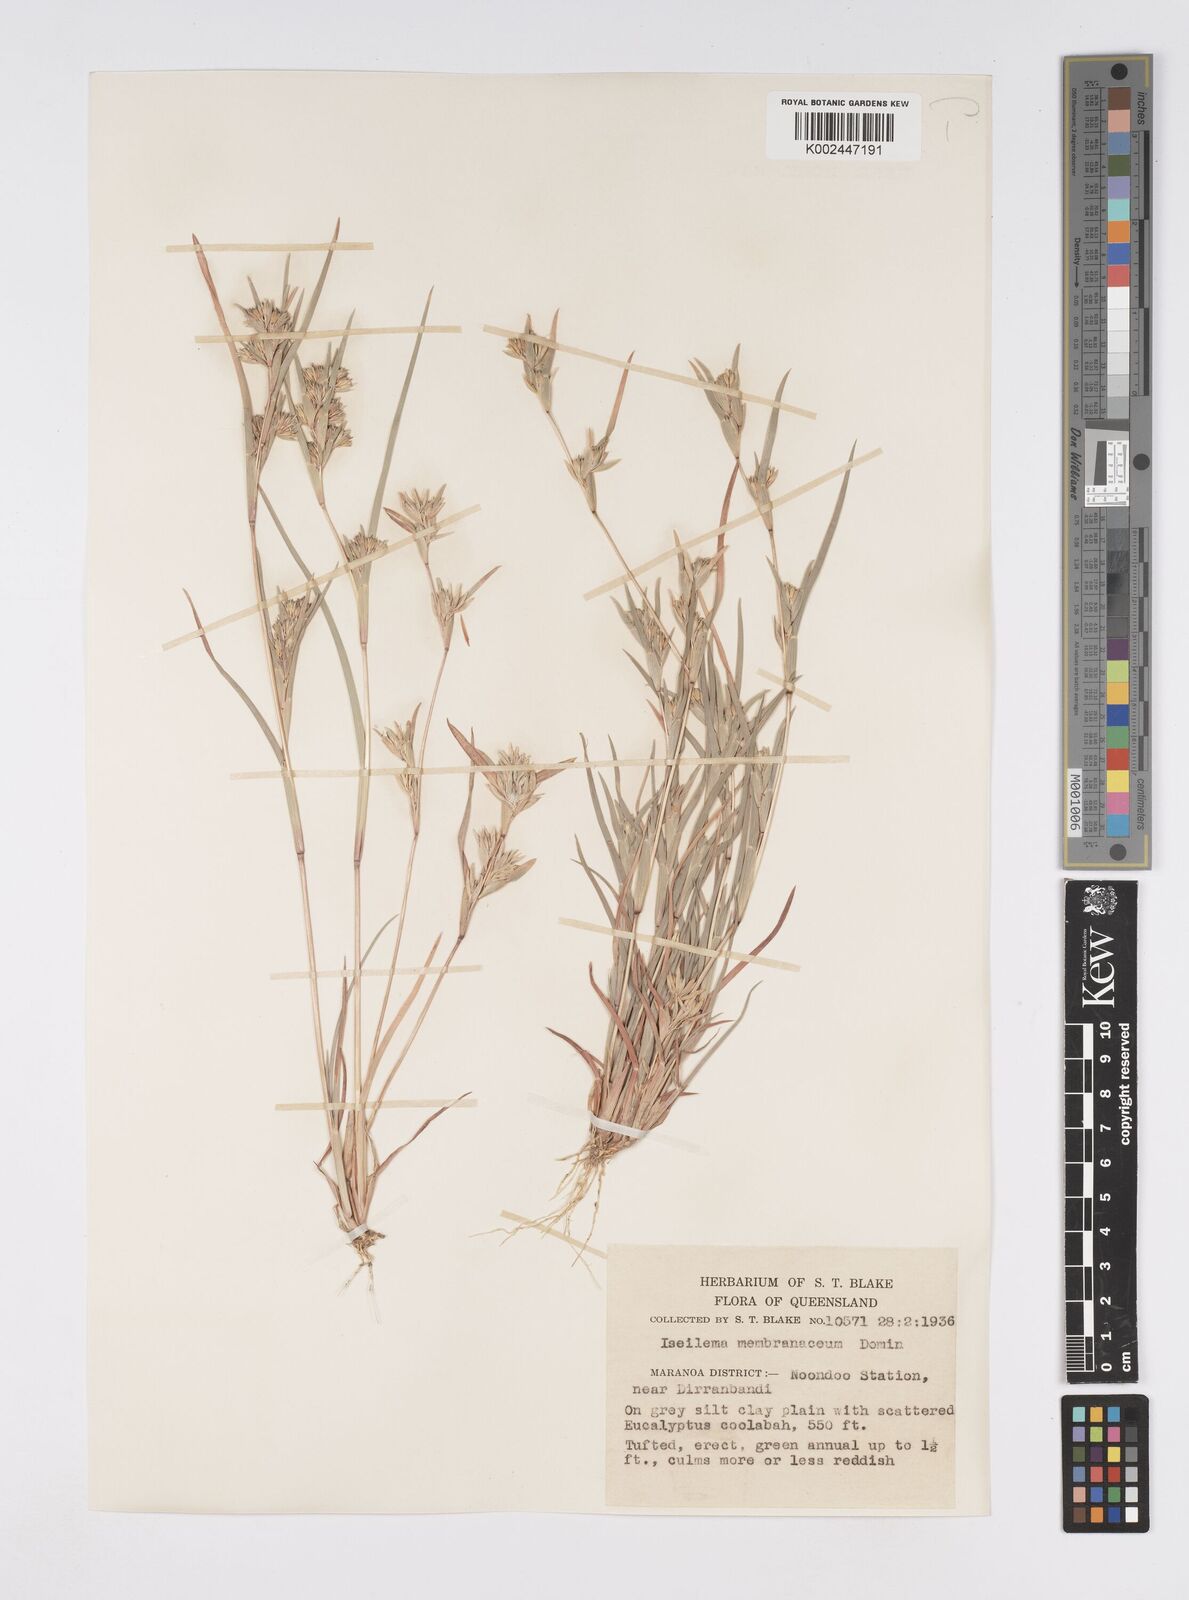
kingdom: Plantae
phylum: Tracheophyta
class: Liliopsida
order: Poales
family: Poaceae
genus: Iseilema
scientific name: Iseilema membranaceum
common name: Small flinders grass
